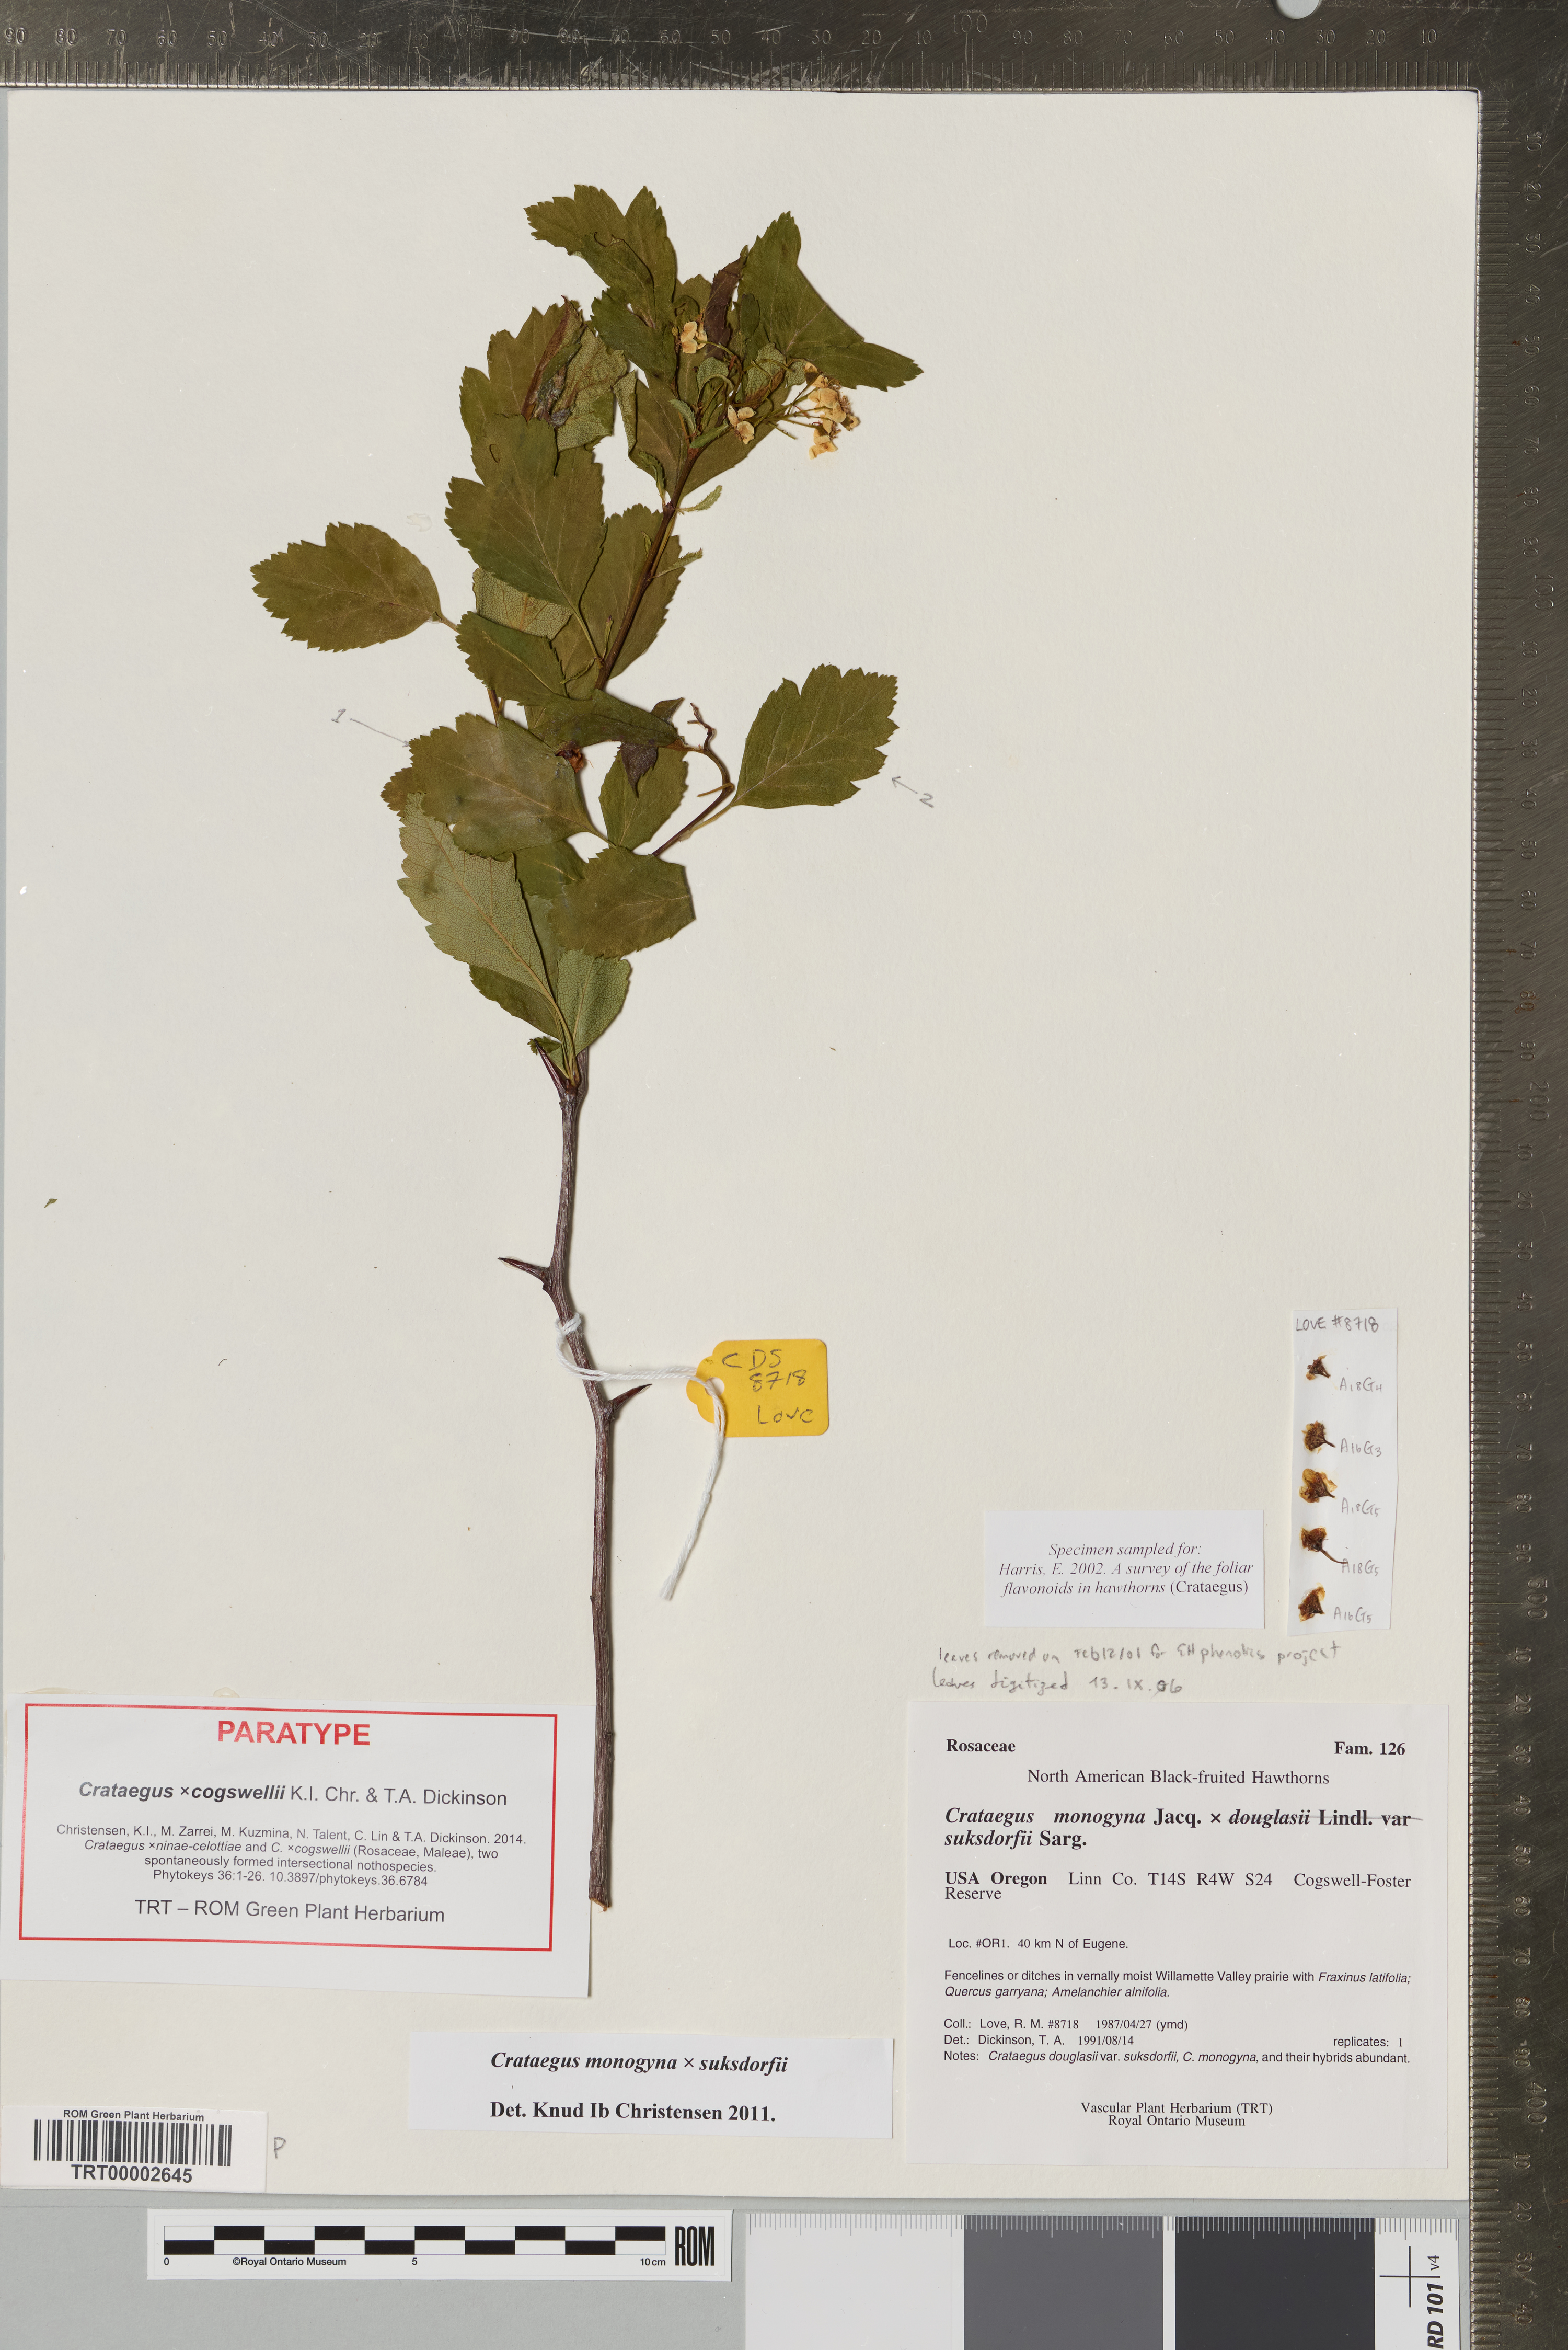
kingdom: Plantae
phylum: Tracheophyta
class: Magnoliopsida
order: Rosales
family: Rosaceae
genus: Crataegus
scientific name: Crataegus
